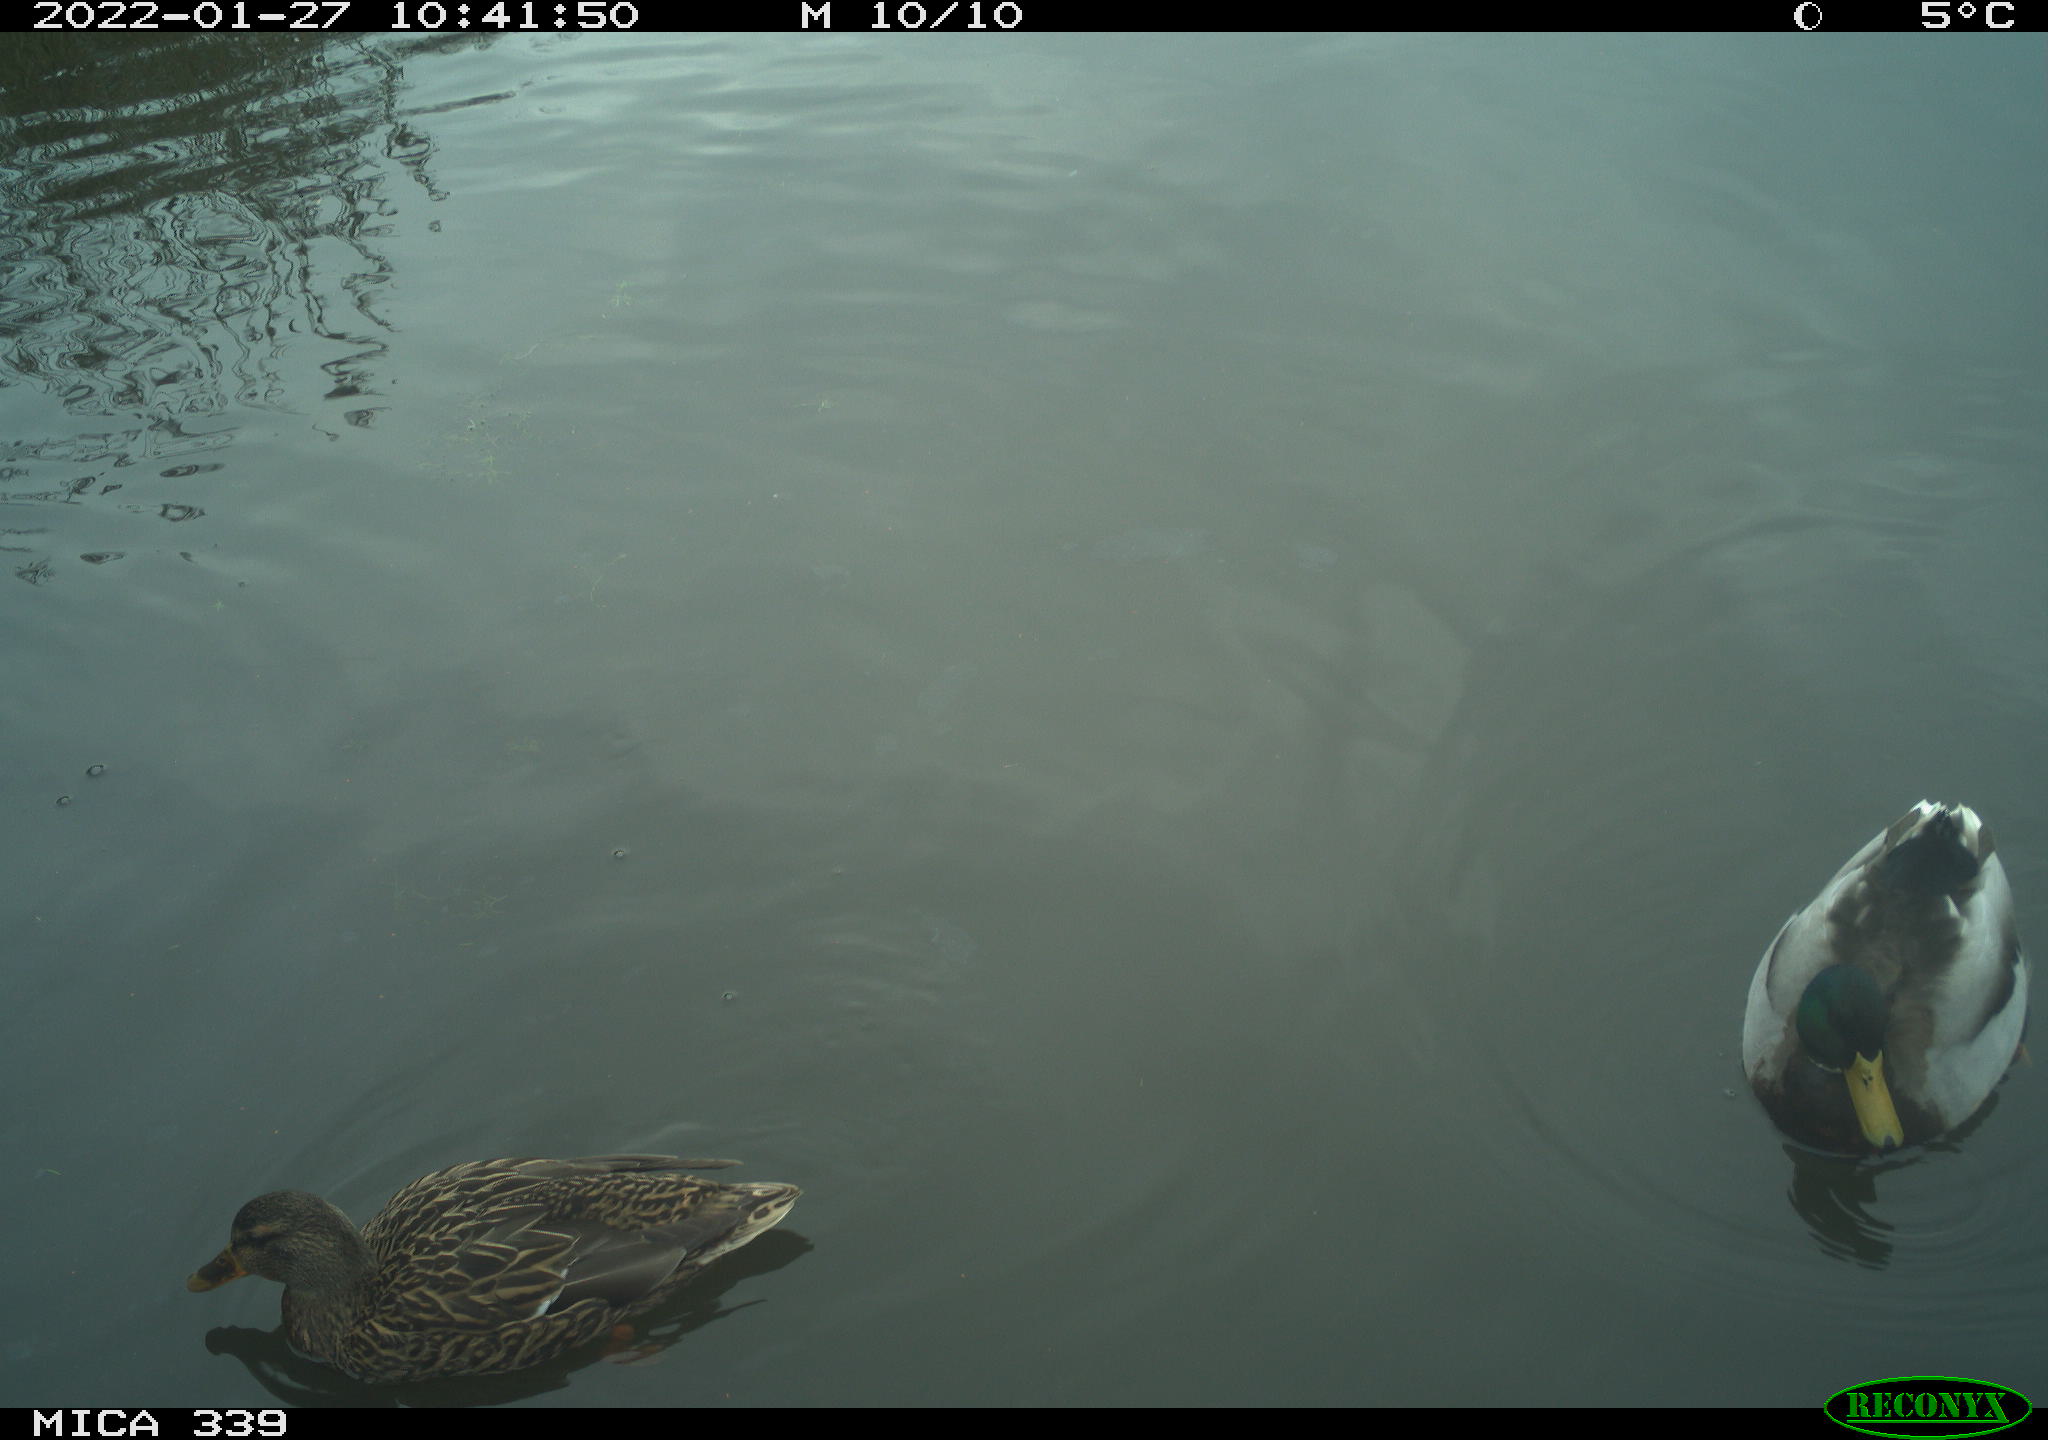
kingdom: Animalia
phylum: Chordata
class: Aves
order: Anseriformes
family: Anatidae
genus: Anas
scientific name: Anas platyrhynchos
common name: Mallard
